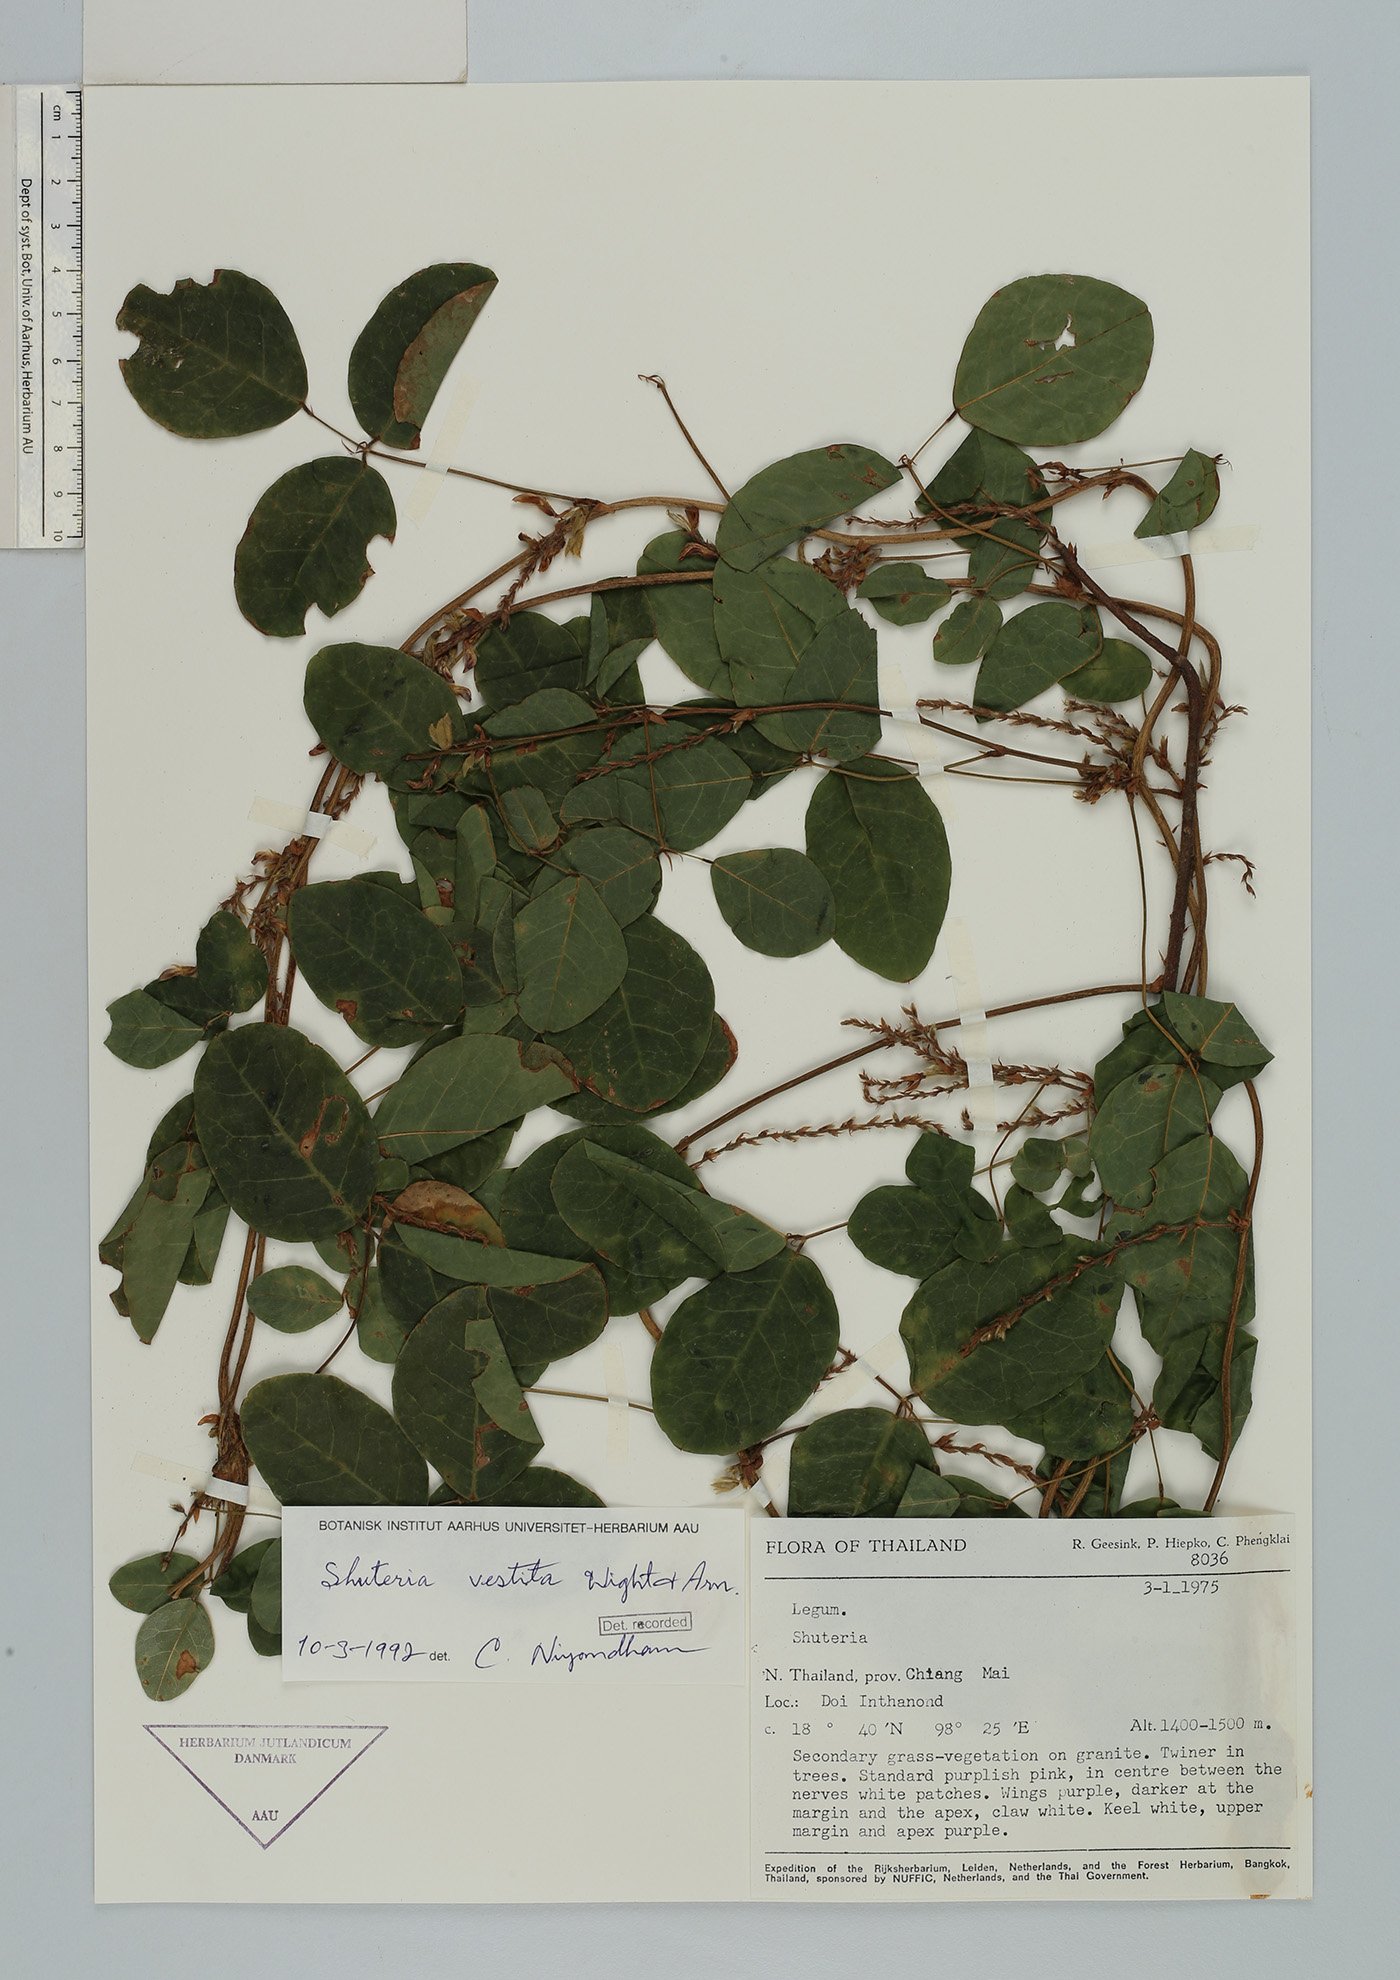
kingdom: Plantae
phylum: Tracheophyta
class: Magnoliopsida
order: Fabales
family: Fabaceae
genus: Shuteria
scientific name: Shuteria vestita
